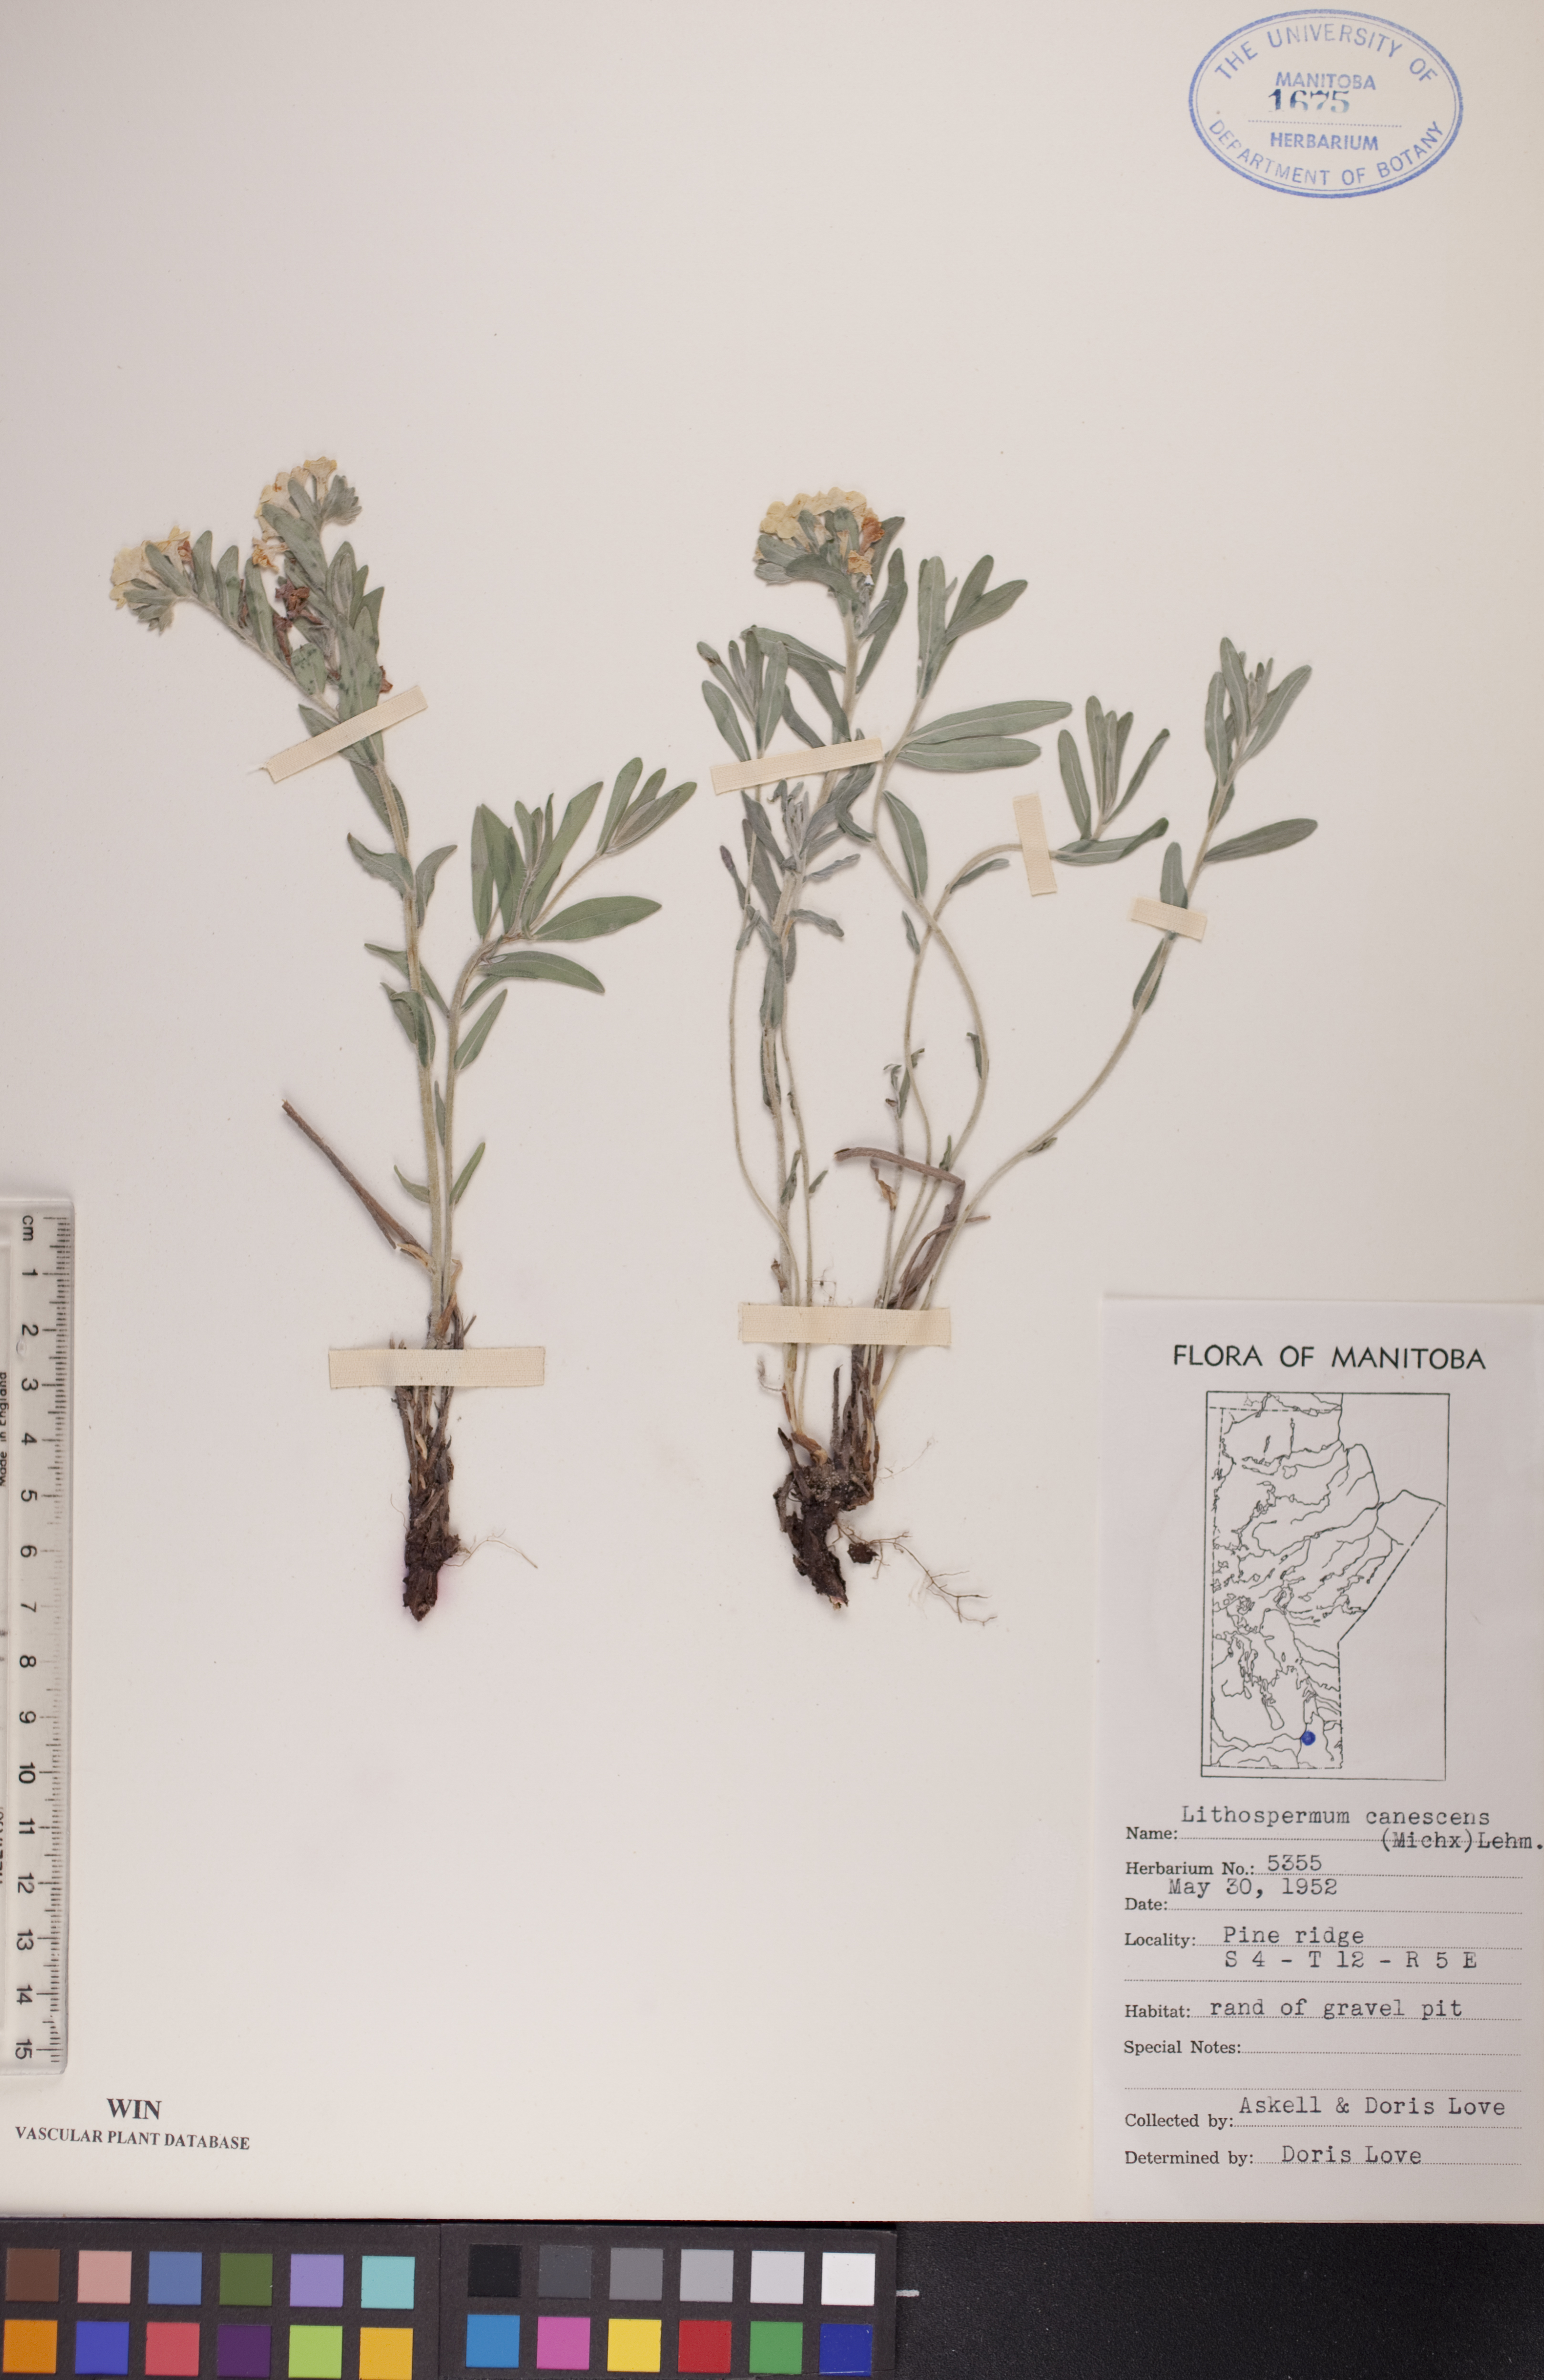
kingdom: Plantae
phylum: Tracheophyta
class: Magnoliopsida
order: Boraginales
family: Boraginaceae
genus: Lithospermum
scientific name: Lithospermum canescens
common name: Hoary puccoon
